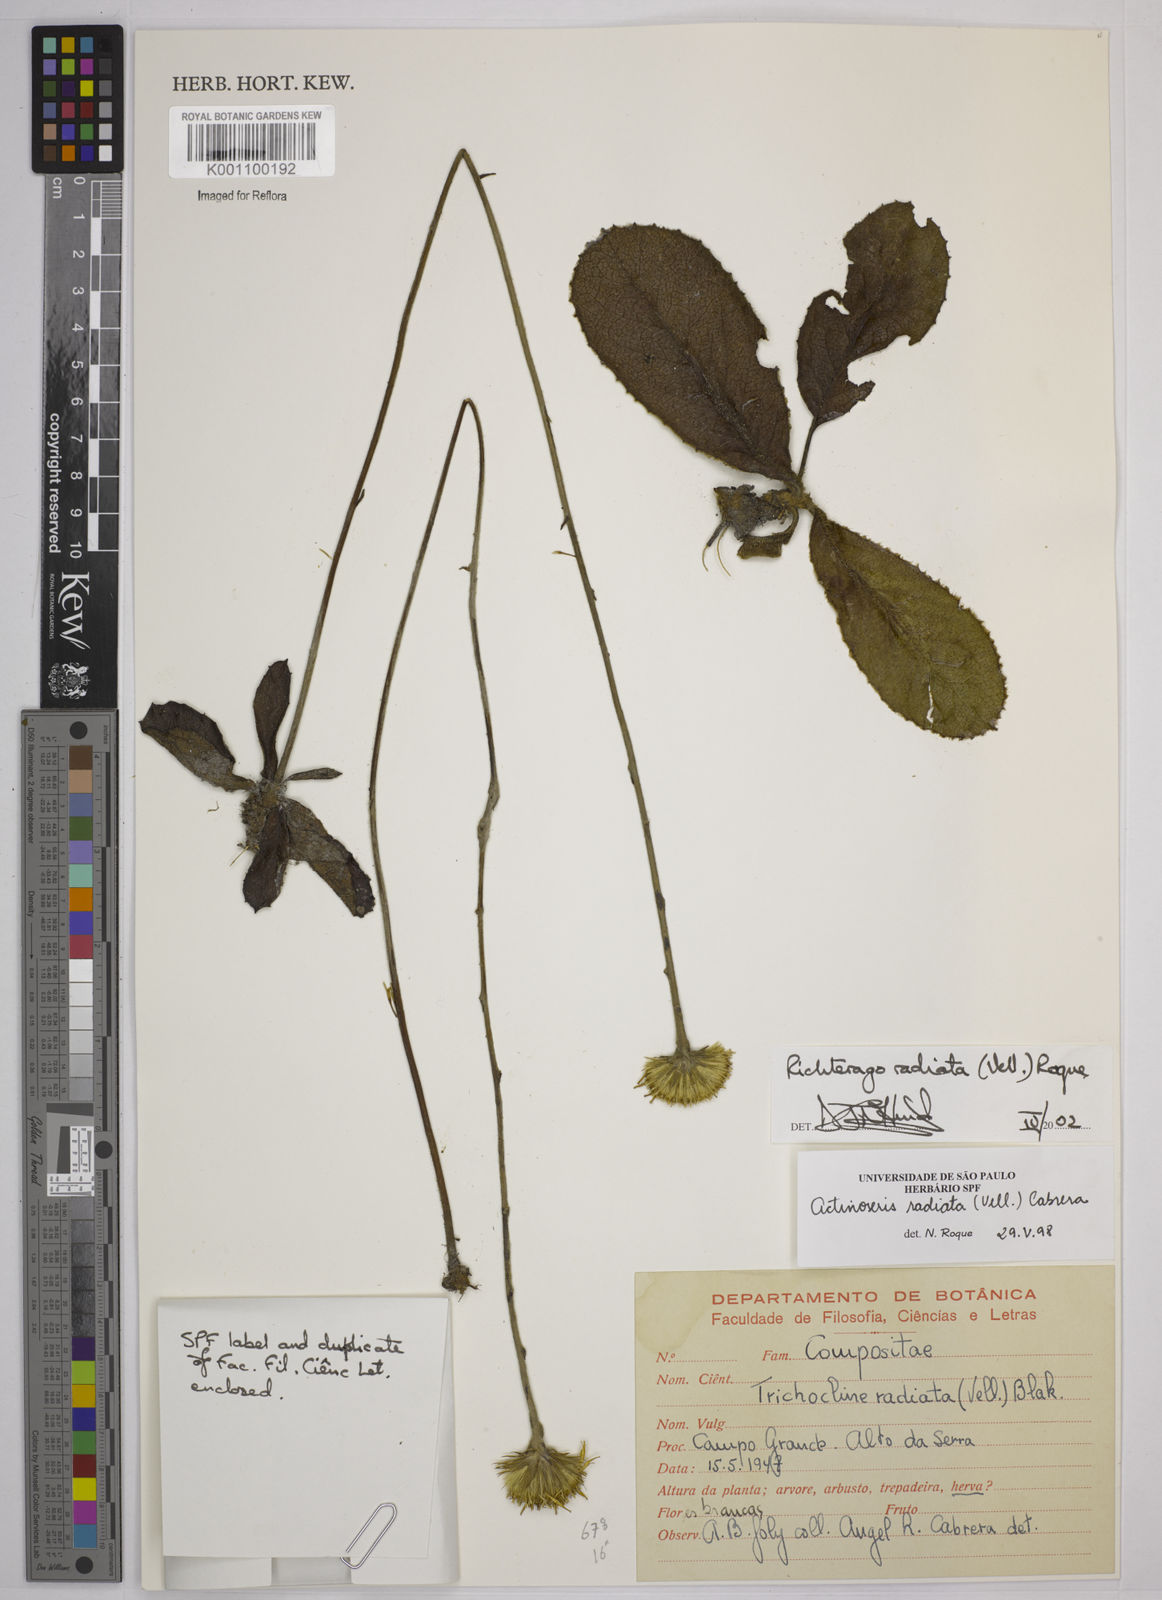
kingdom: Plantae
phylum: Tracheophyta
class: Magnoliopsida
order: Asterales
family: Asteraceae
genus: Richterago
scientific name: Richterago radiata
